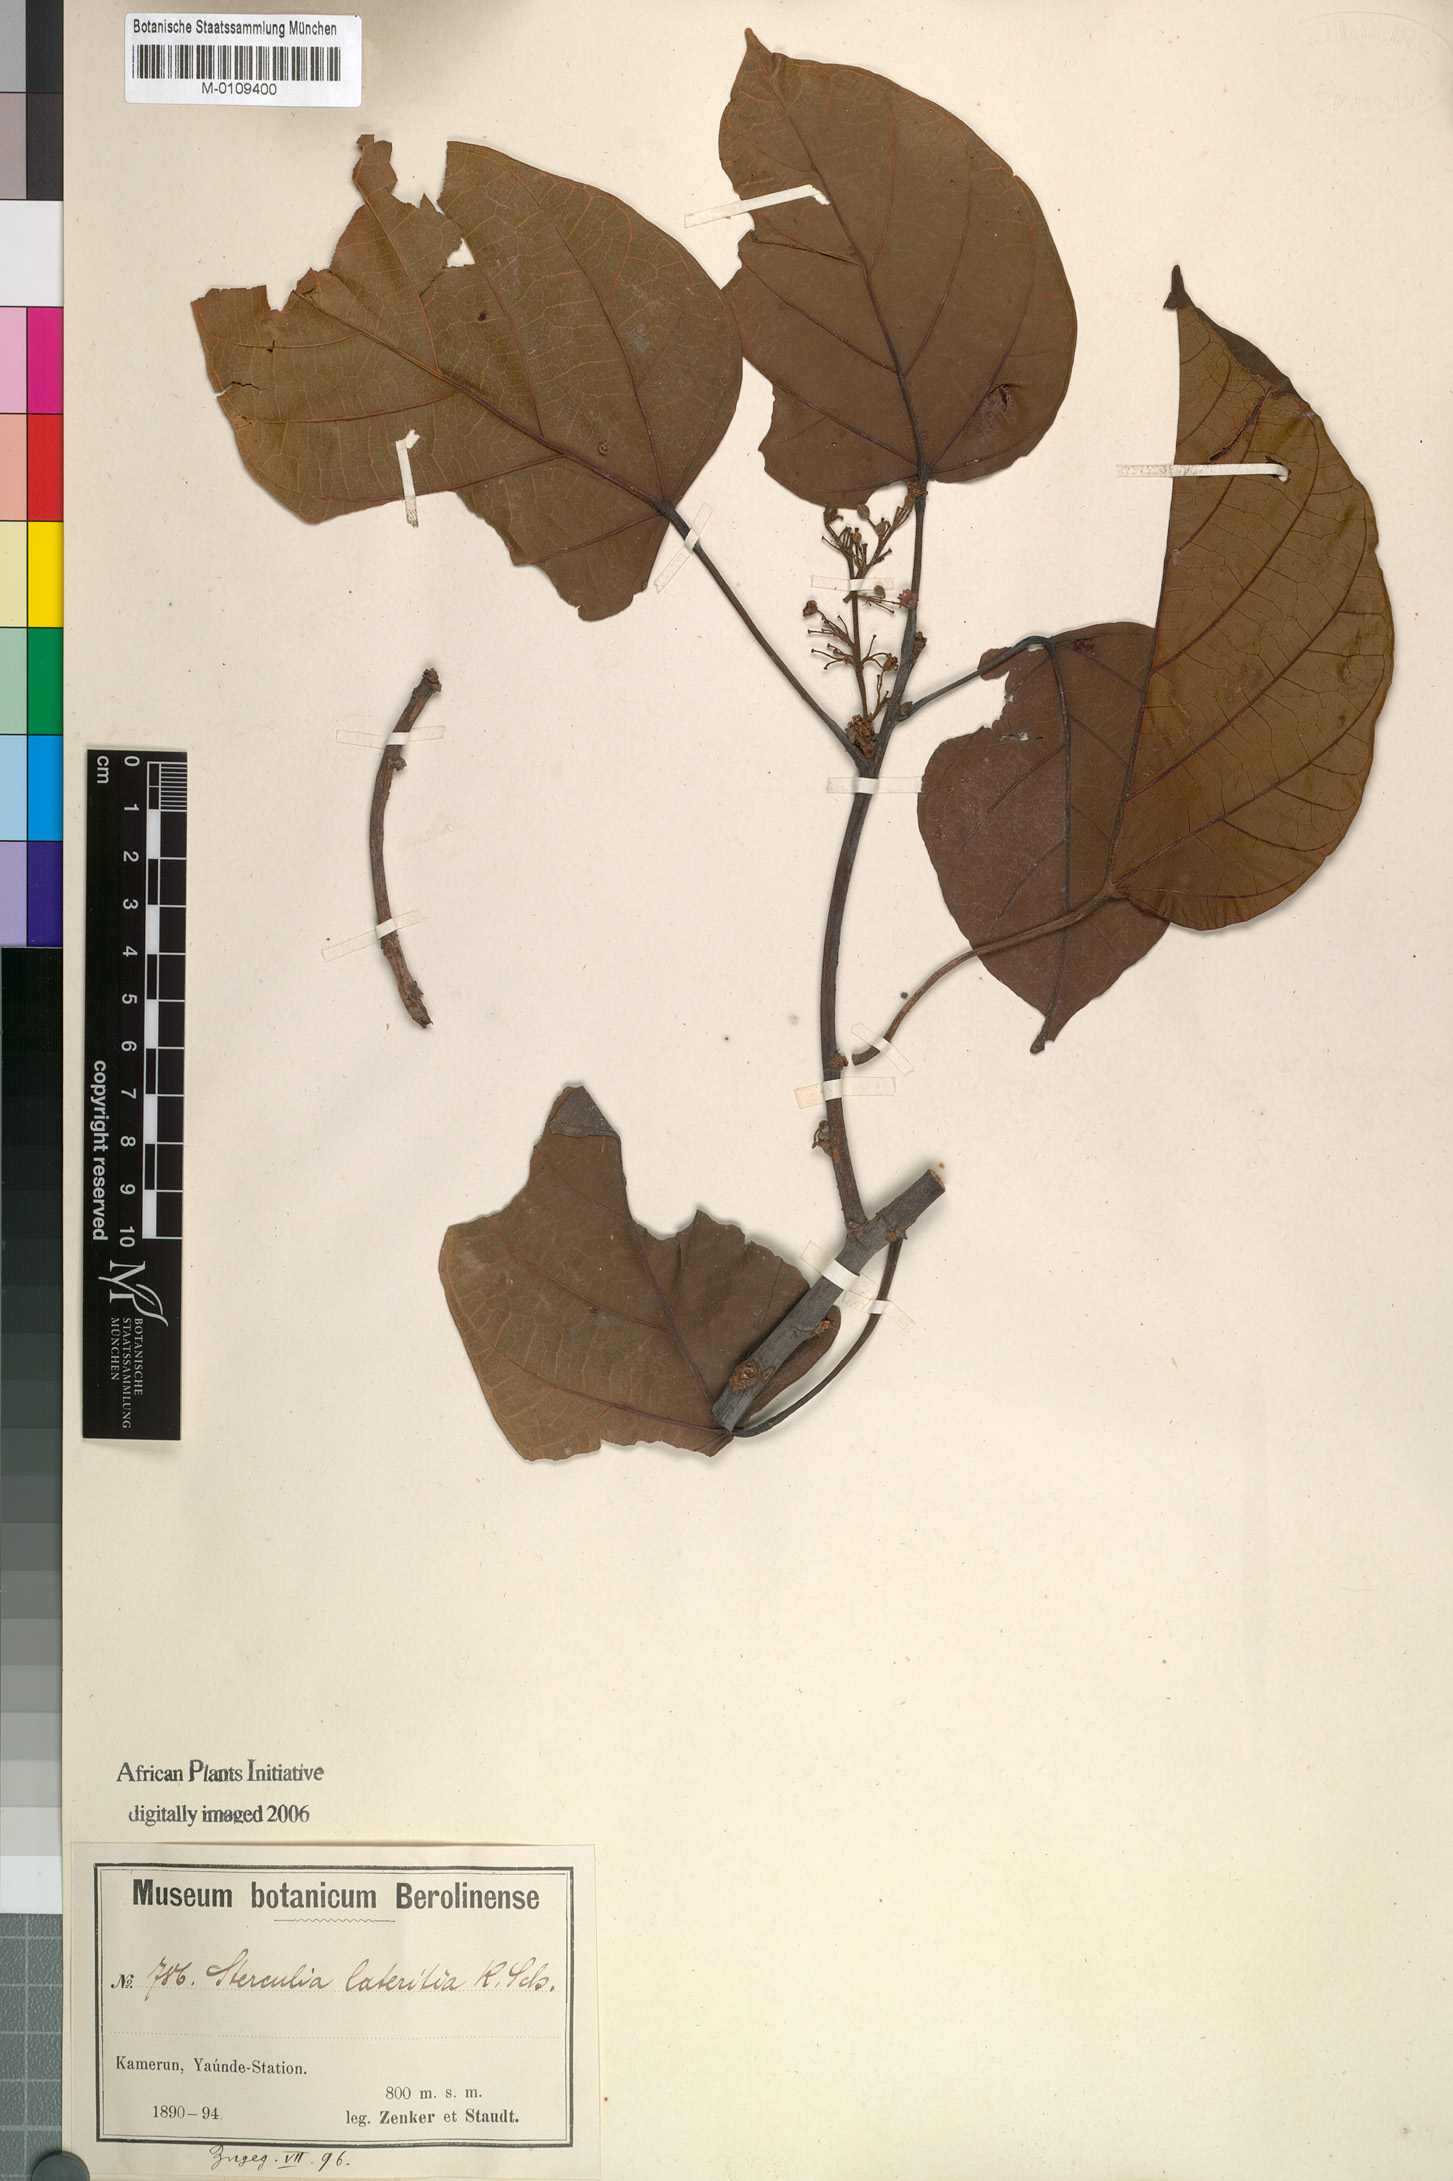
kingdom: Plantae
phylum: Tracheophyta
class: Magnoliopsida
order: Malvales
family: Malvaceae
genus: Cola
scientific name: Cola lateritia
